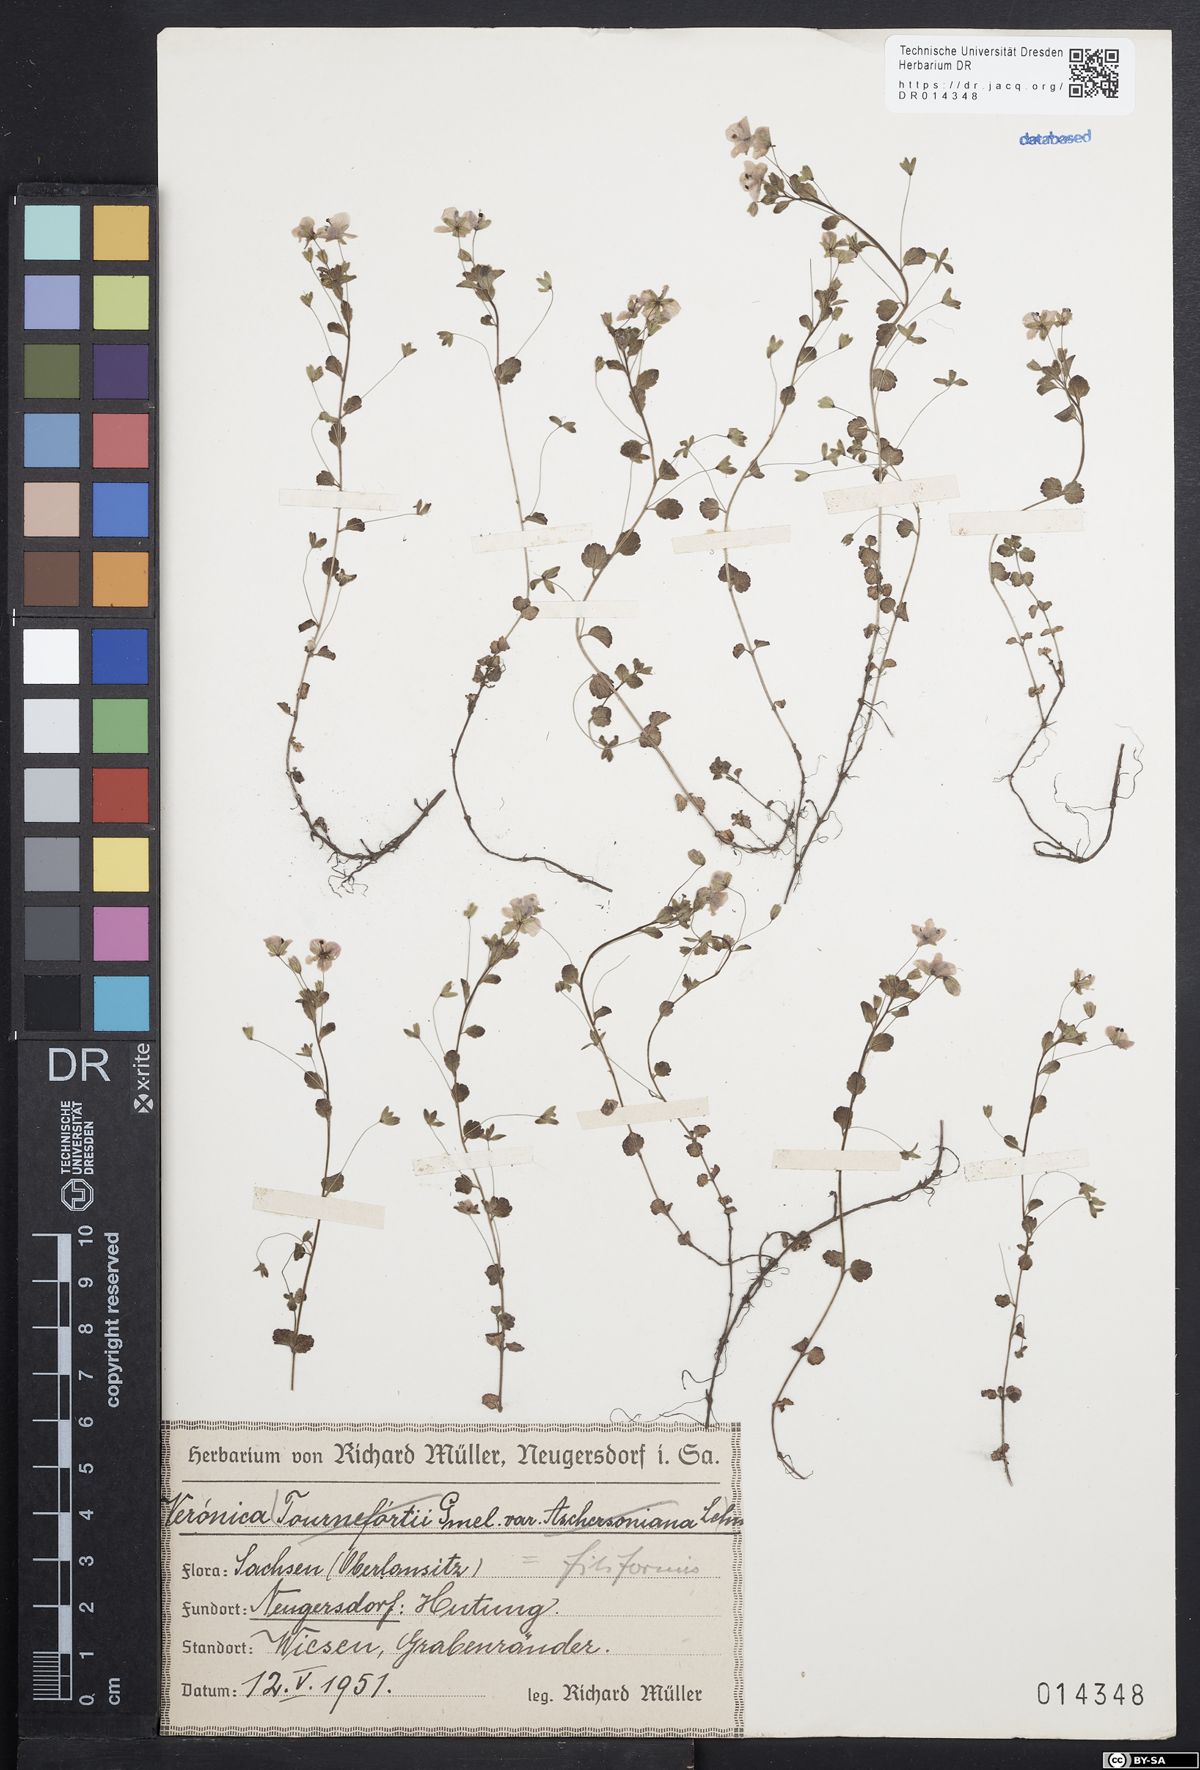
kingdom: Plantae
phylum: Tracheophyta
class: Magnoliopsida
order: Lamiales
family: Plantaginaceae
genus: Veronica
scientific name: Veronica filiformis
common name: Slender speedwell
